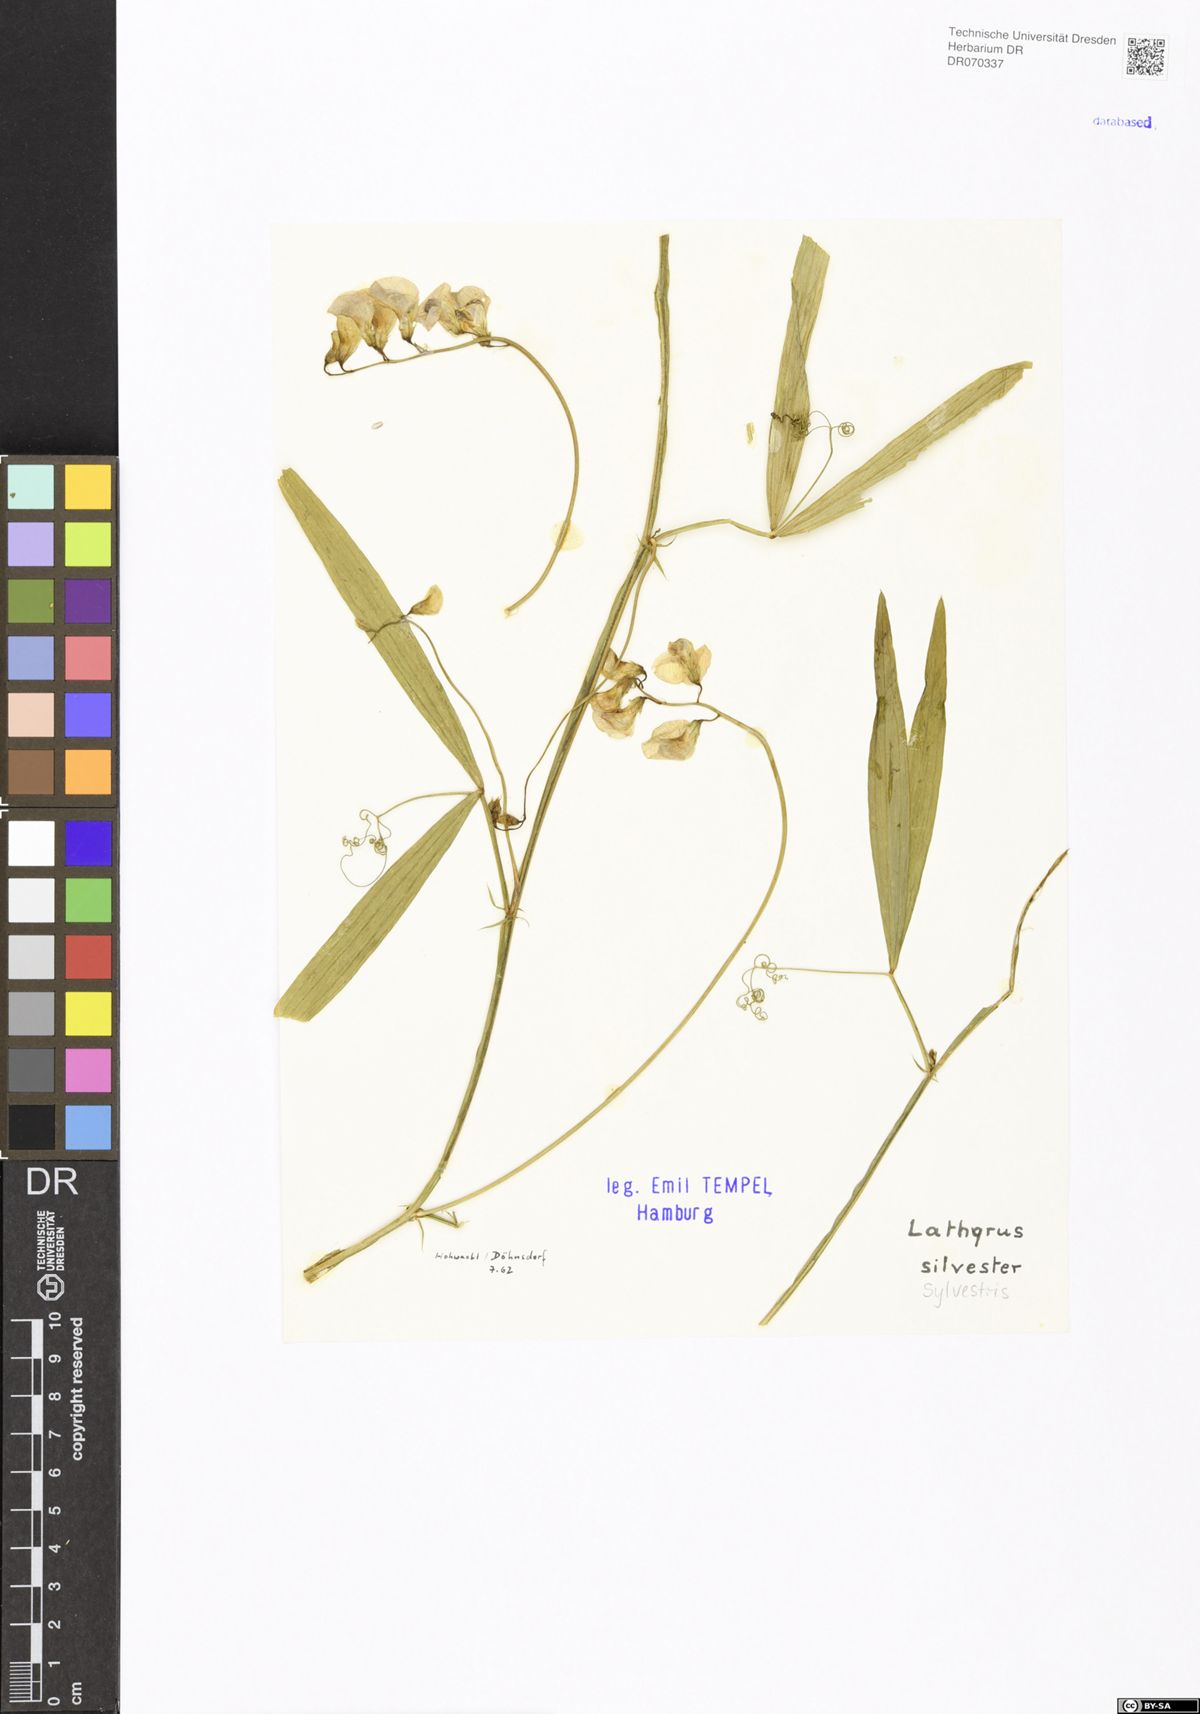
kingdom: Plantae
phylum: Tracheophyta
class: Magnoliopsida
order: Fabales
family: Fabaceae
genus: Lathyrus
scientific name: Lathyrus sylvestris
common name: Flat pea
